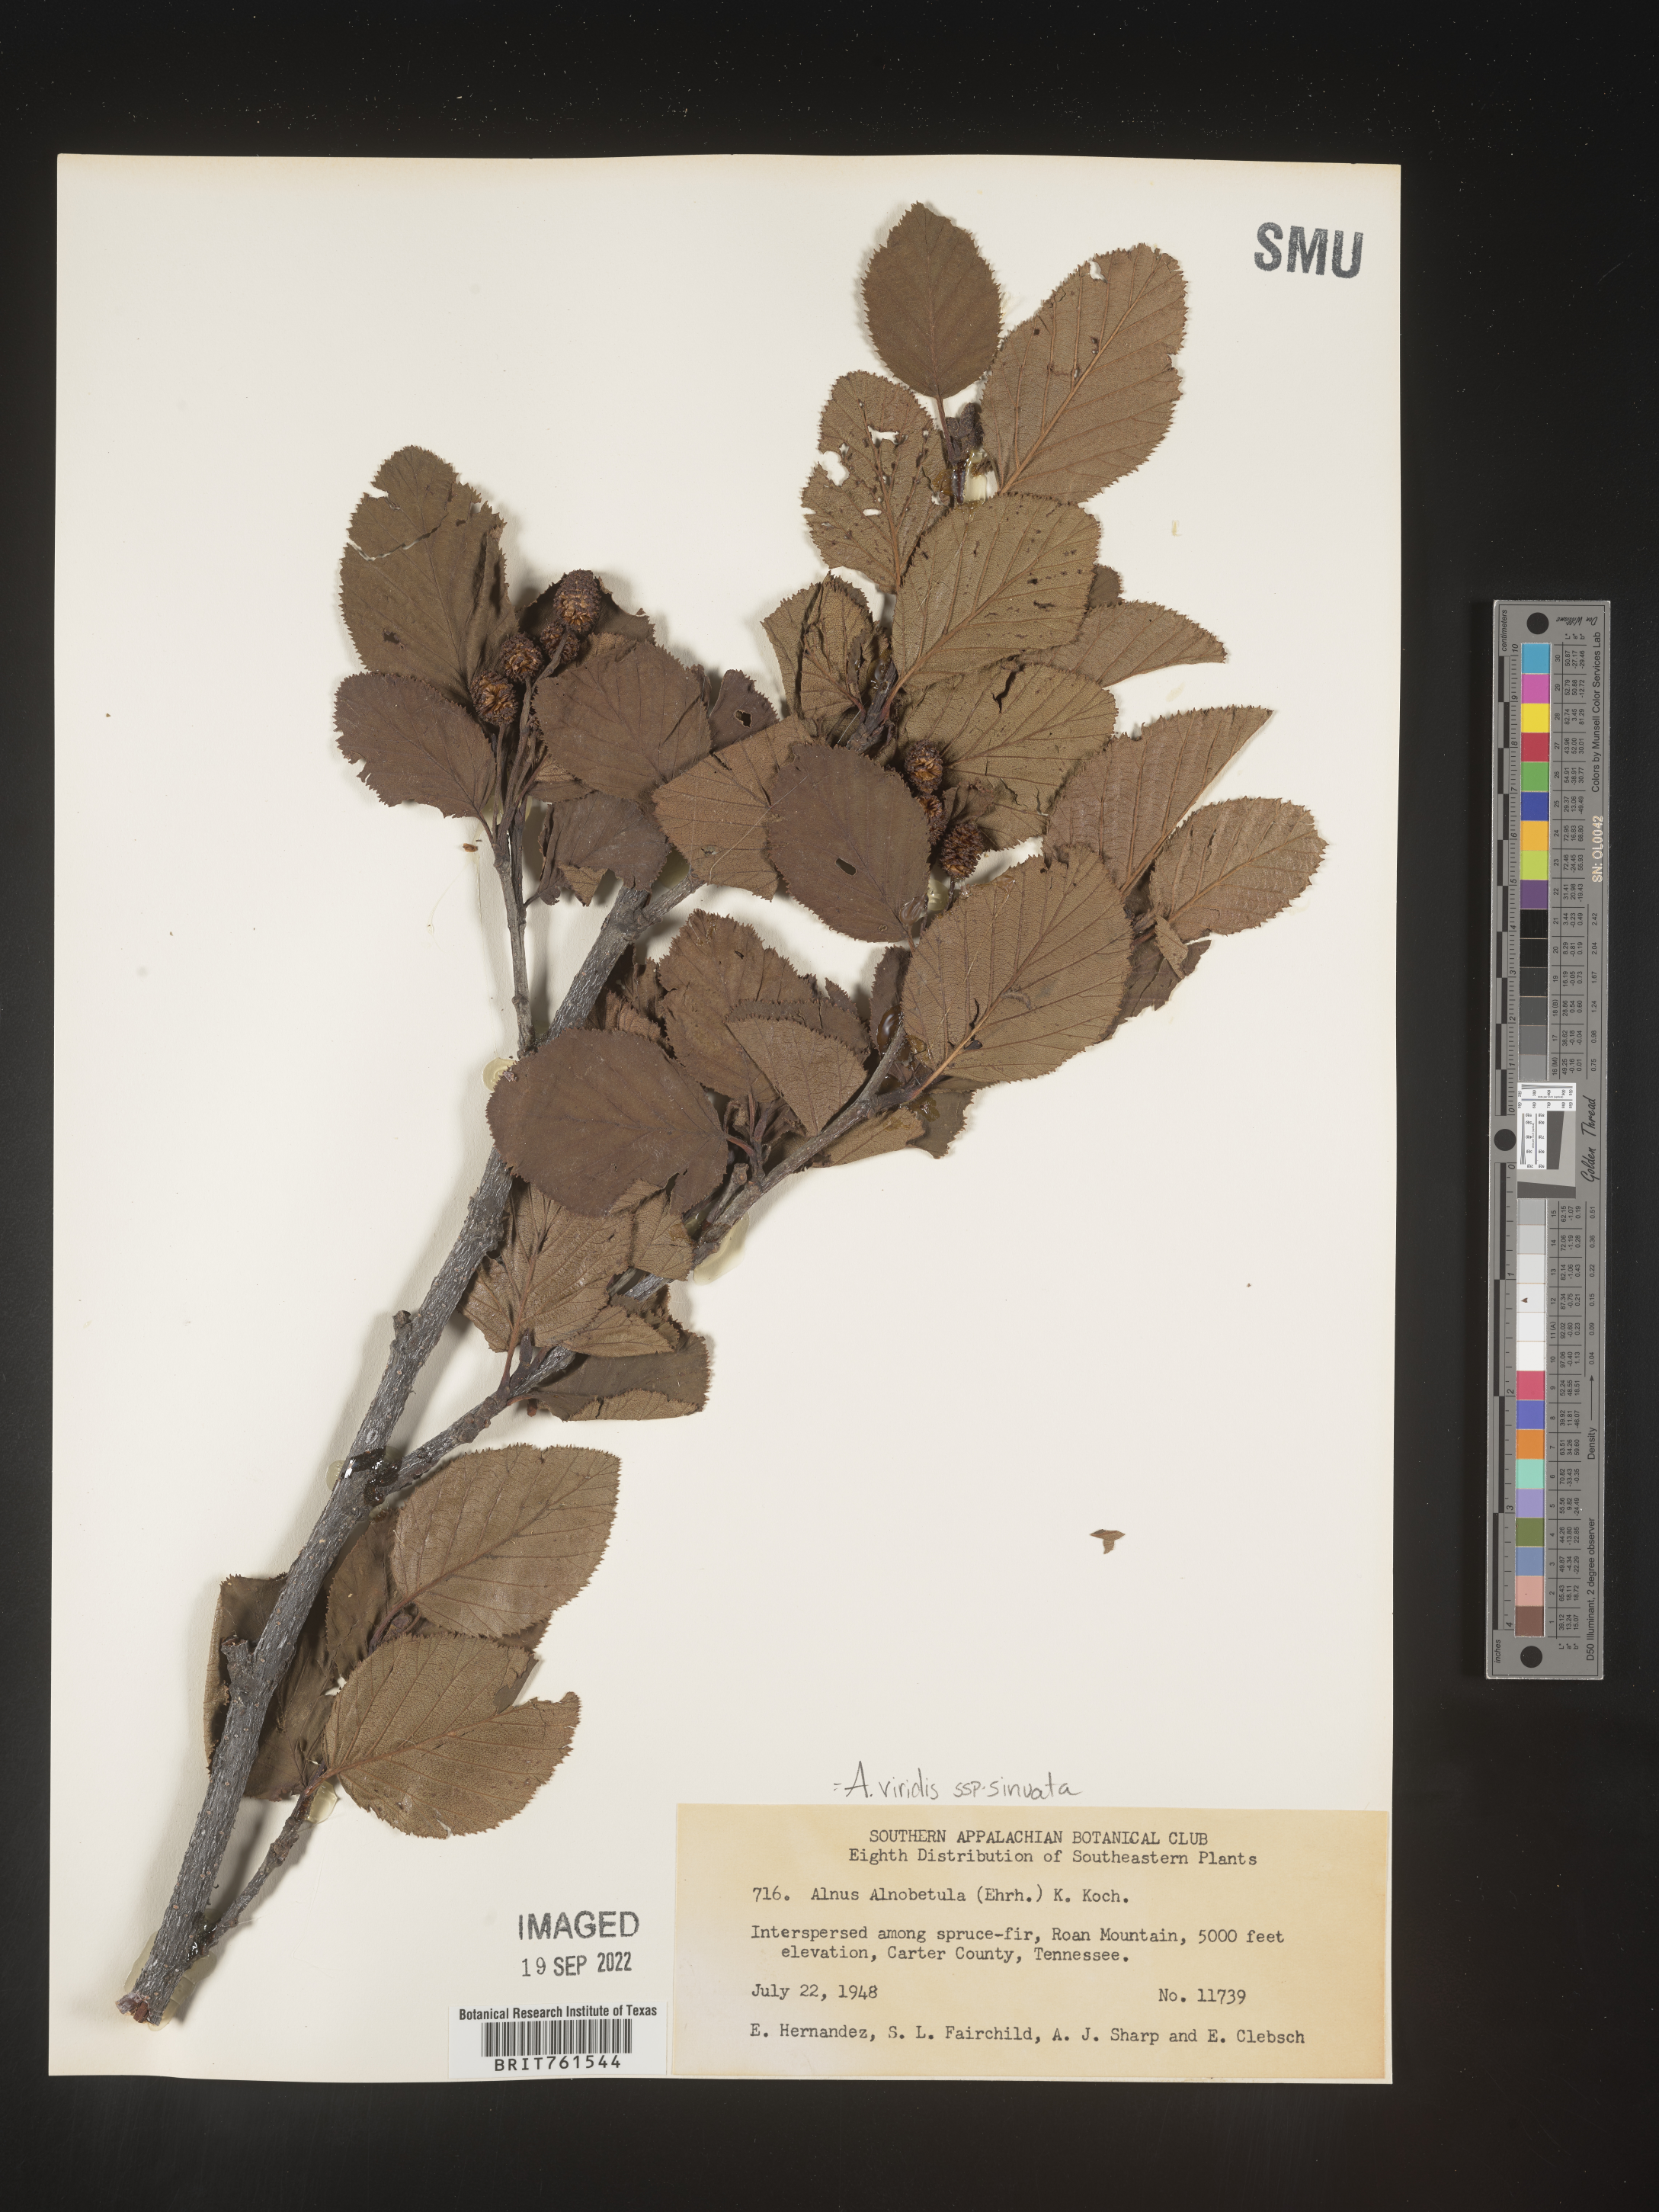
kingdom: Plantae
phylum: Tracheophyta
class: Magnoliopsida
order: Fagales
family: Betulaceae
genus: Alnus
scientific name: Alnus alnobetula
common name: Green alder
